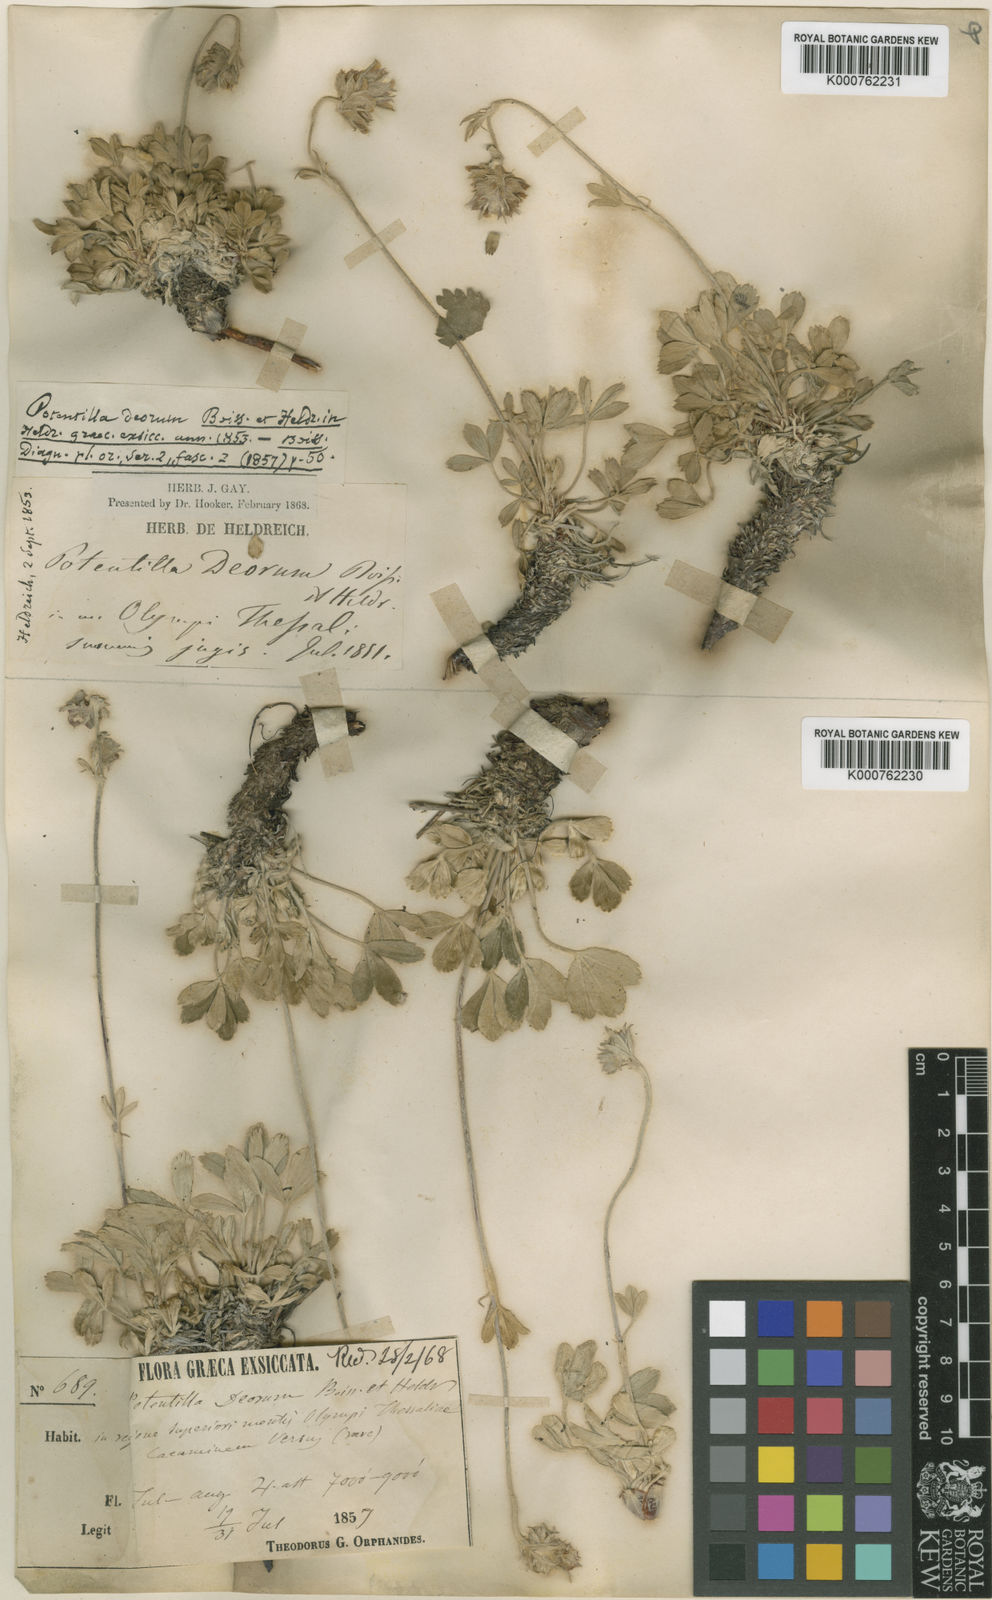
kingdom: Plantae
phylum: Tracheophyta
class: Magnoliopsida
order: Rosales
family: Rosaceae
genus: Potentilla
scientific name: Potentilla deorum
